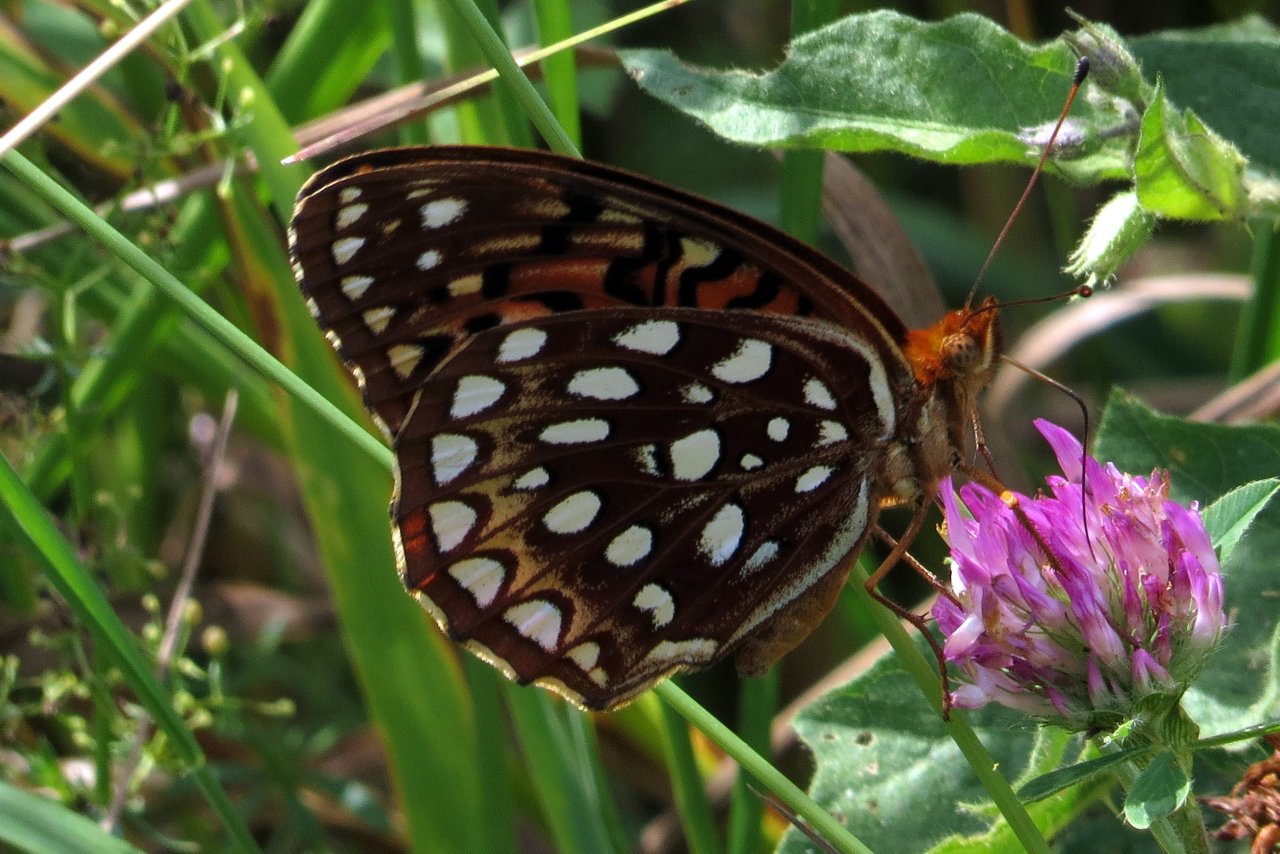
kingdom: Animalia
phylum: Arthropoda
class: Insecta
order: Lepidoptera
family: Nymphalidae
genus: Speyeria
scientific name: Speyeria aphrodite
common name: Aphrodite Fritillary
